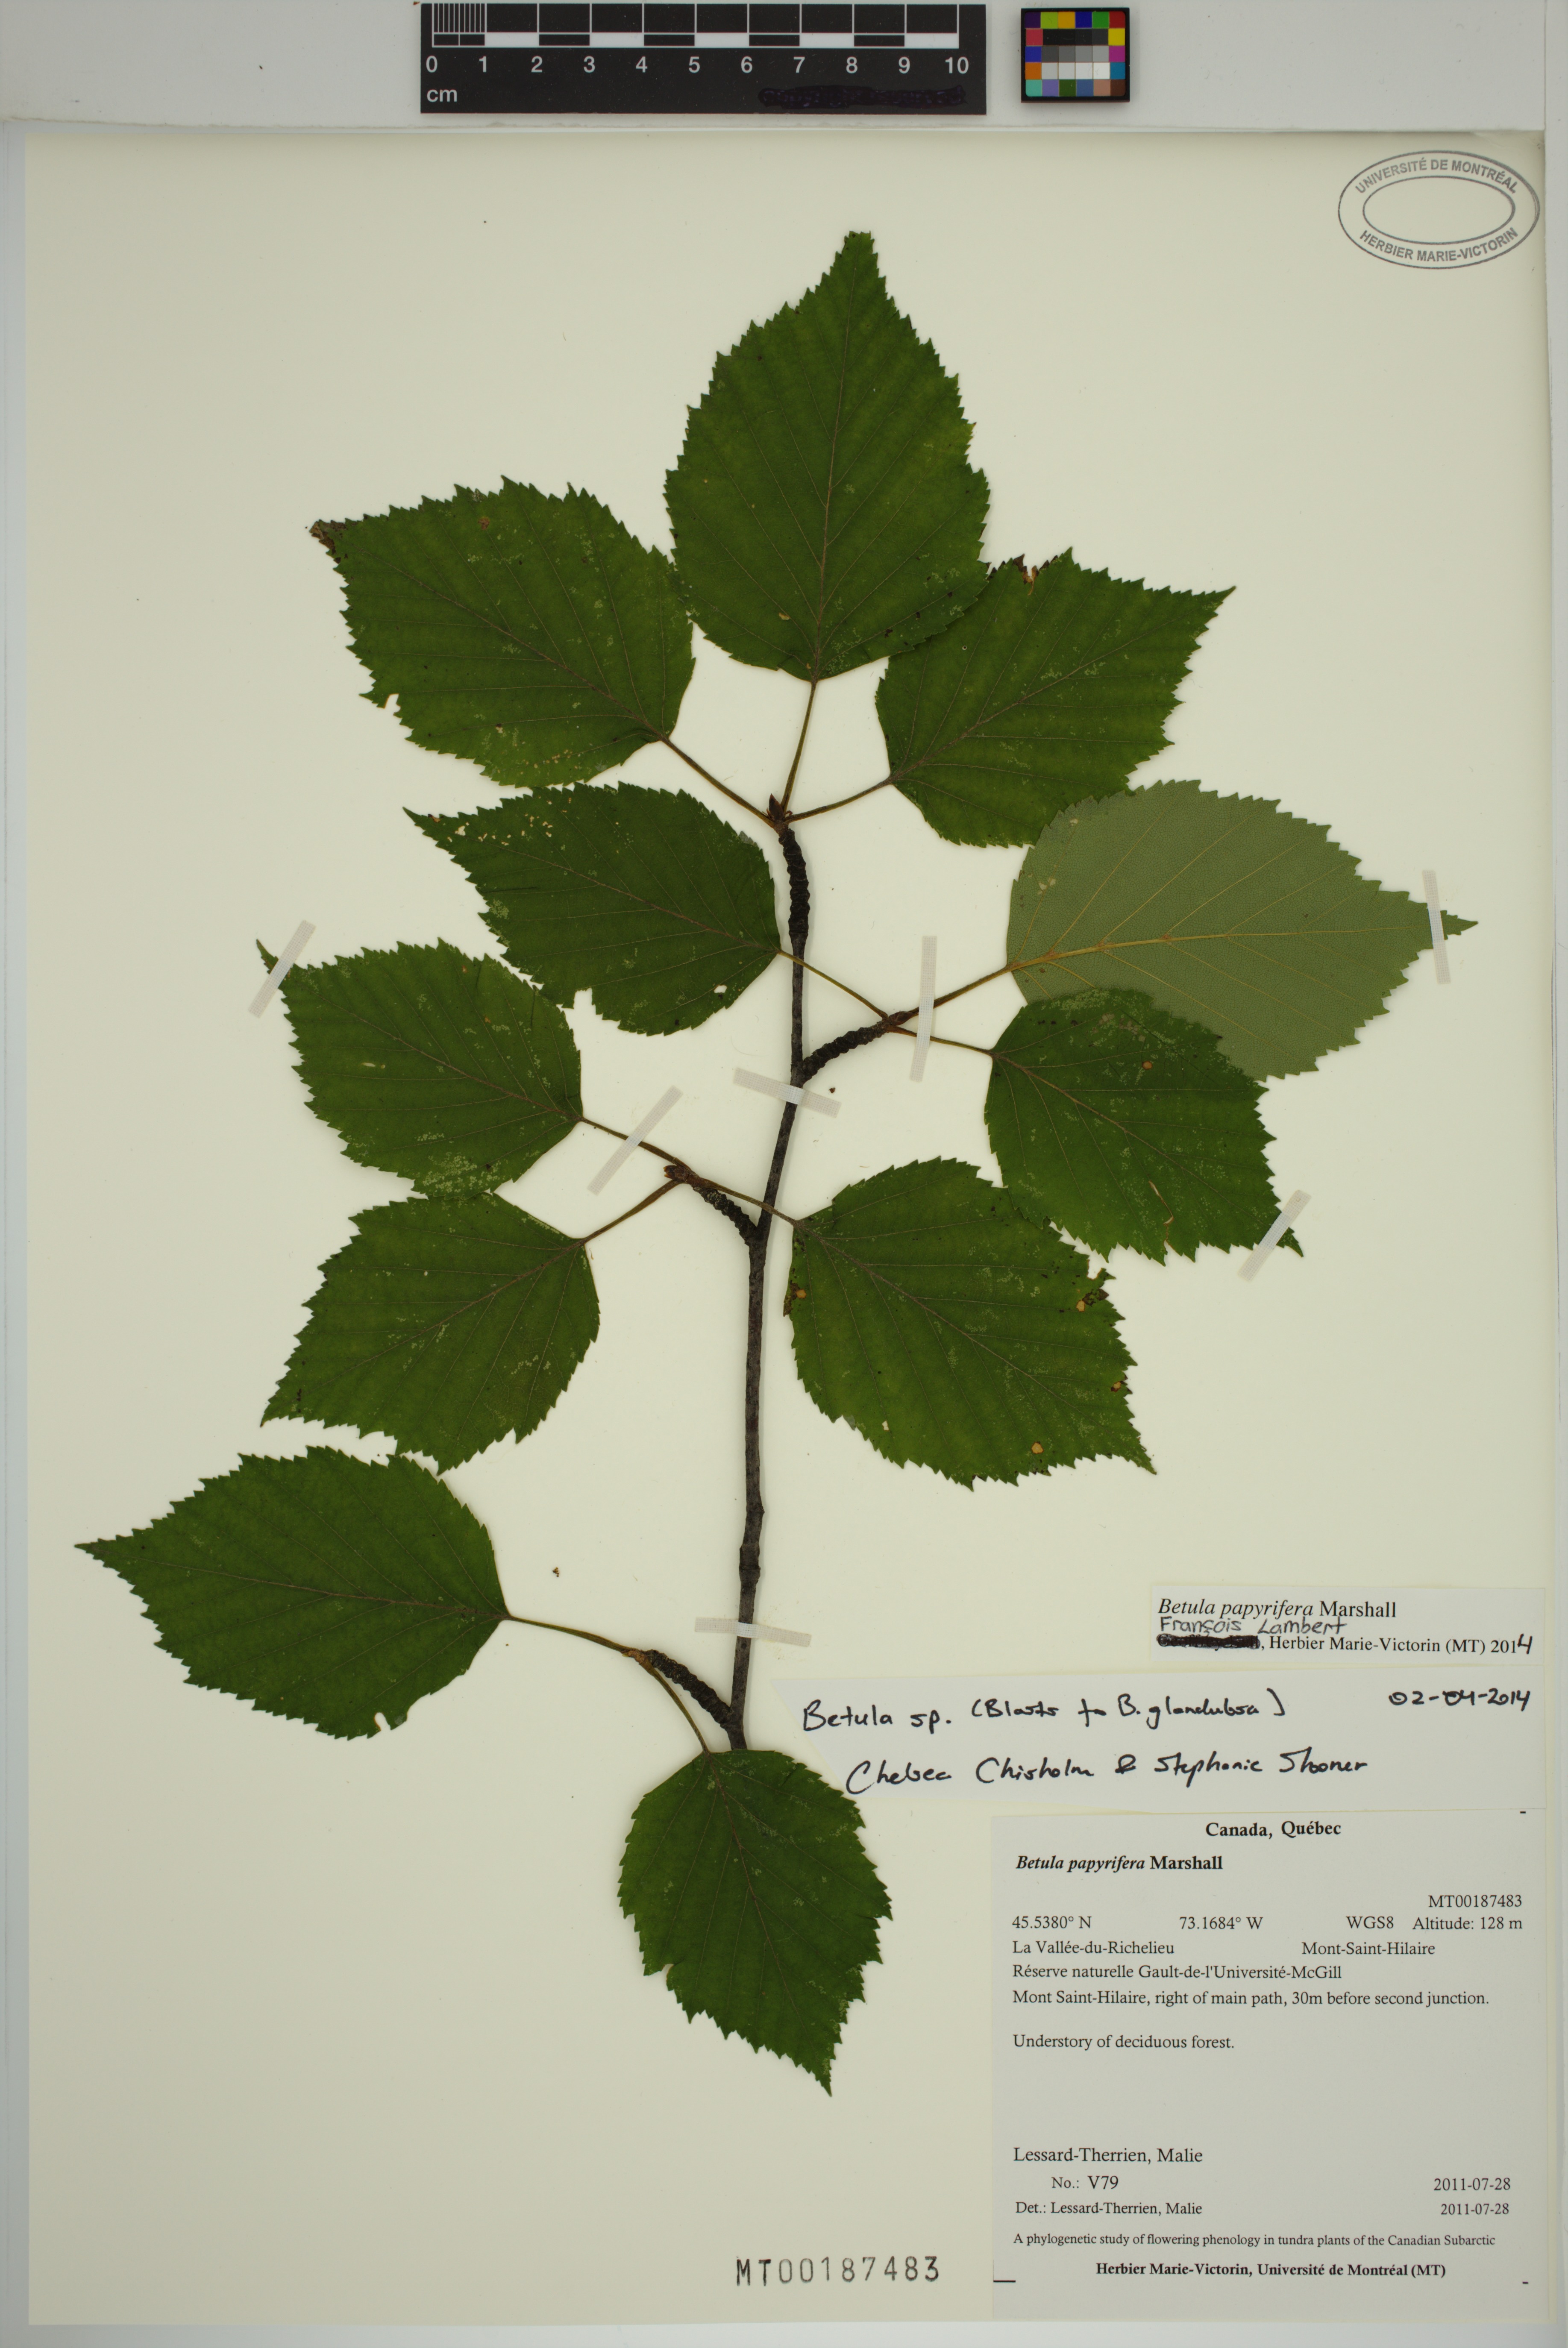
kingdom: Plantae
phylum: Tracheophyta
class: Magnoliopsida
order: Fagales
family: Betulaceae
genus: Betula
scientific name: Betula papyrifera
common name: Paper birch
